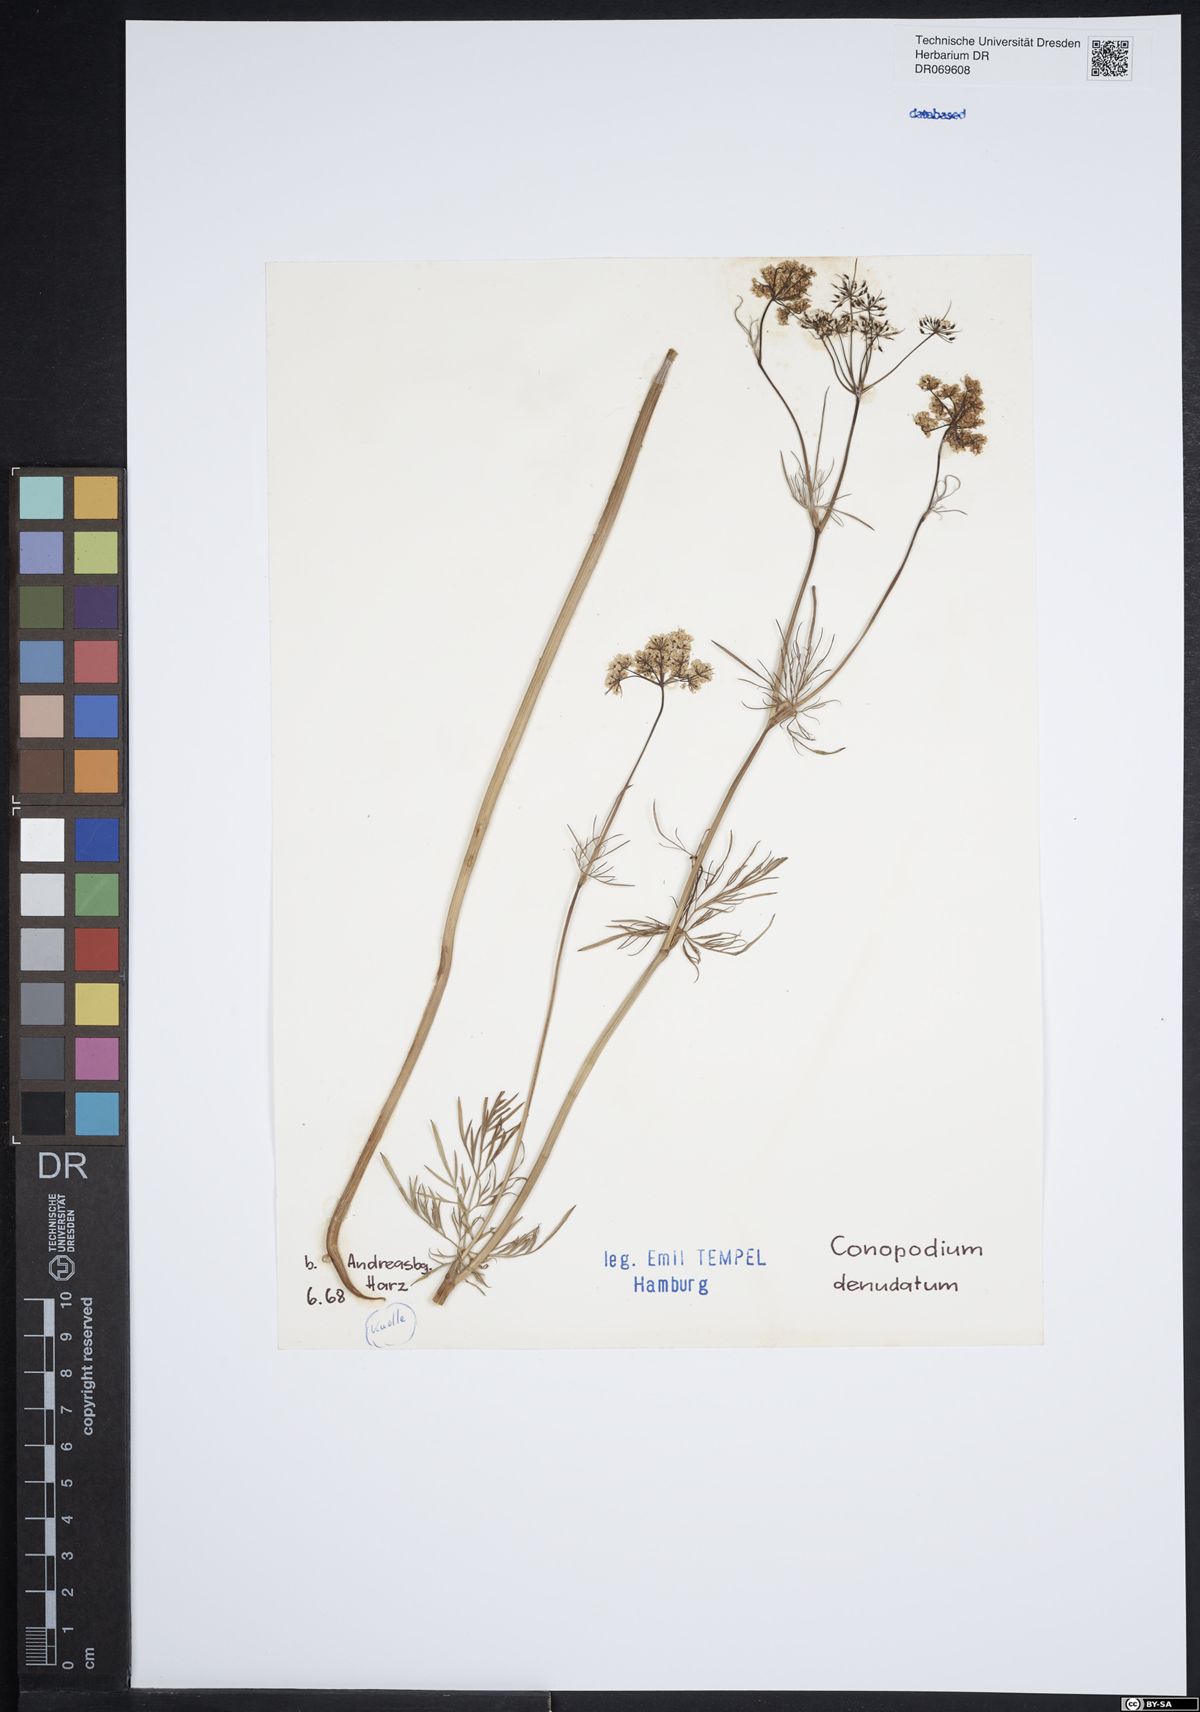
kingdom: Plantae
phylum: Tracheophyta
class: Magnoliopsida
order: Apiales
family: Apiaceae
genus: Conopodium
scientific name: Conopodium majus
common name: Pignut
